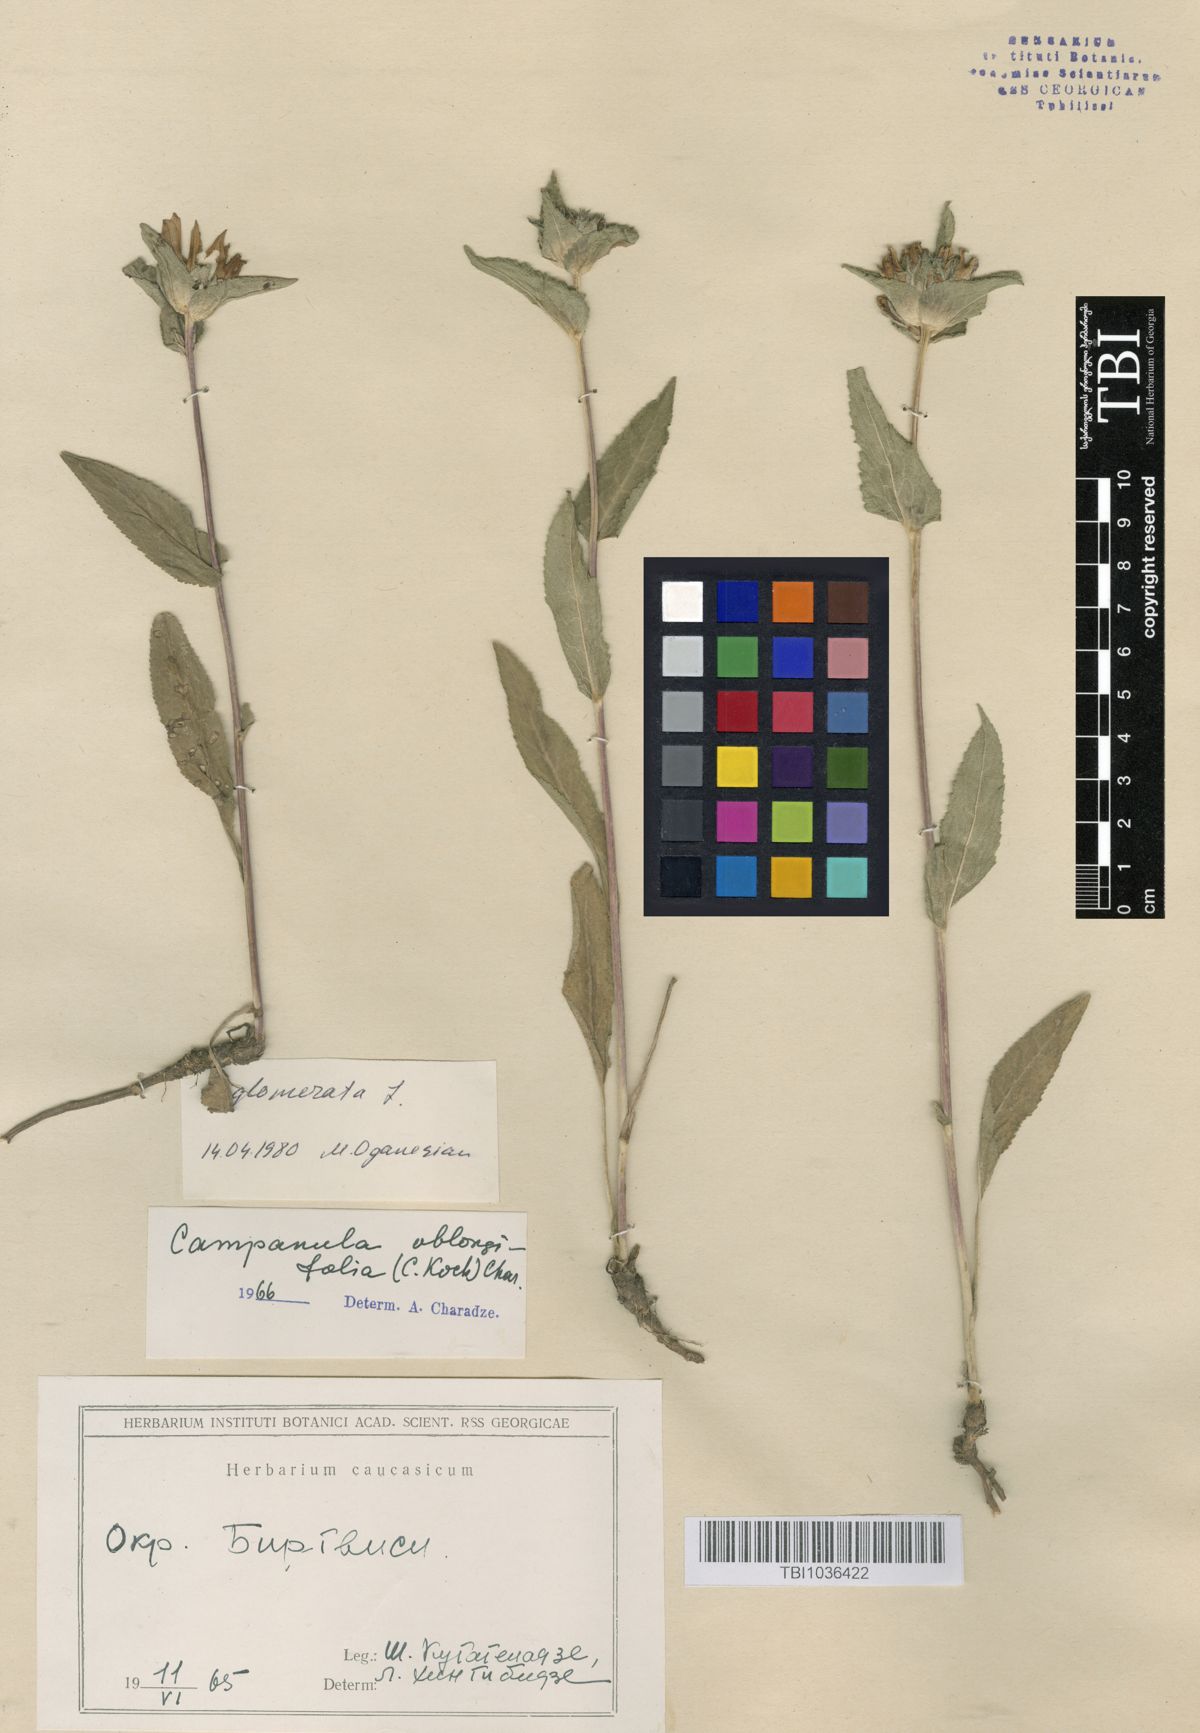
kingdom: Plantae
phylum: Tracheophyta
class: Magnoliopsida
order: Asterales
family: Campanulaceae
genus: Campanula
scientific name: Campanula glomerata
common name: Clustered bellflower
